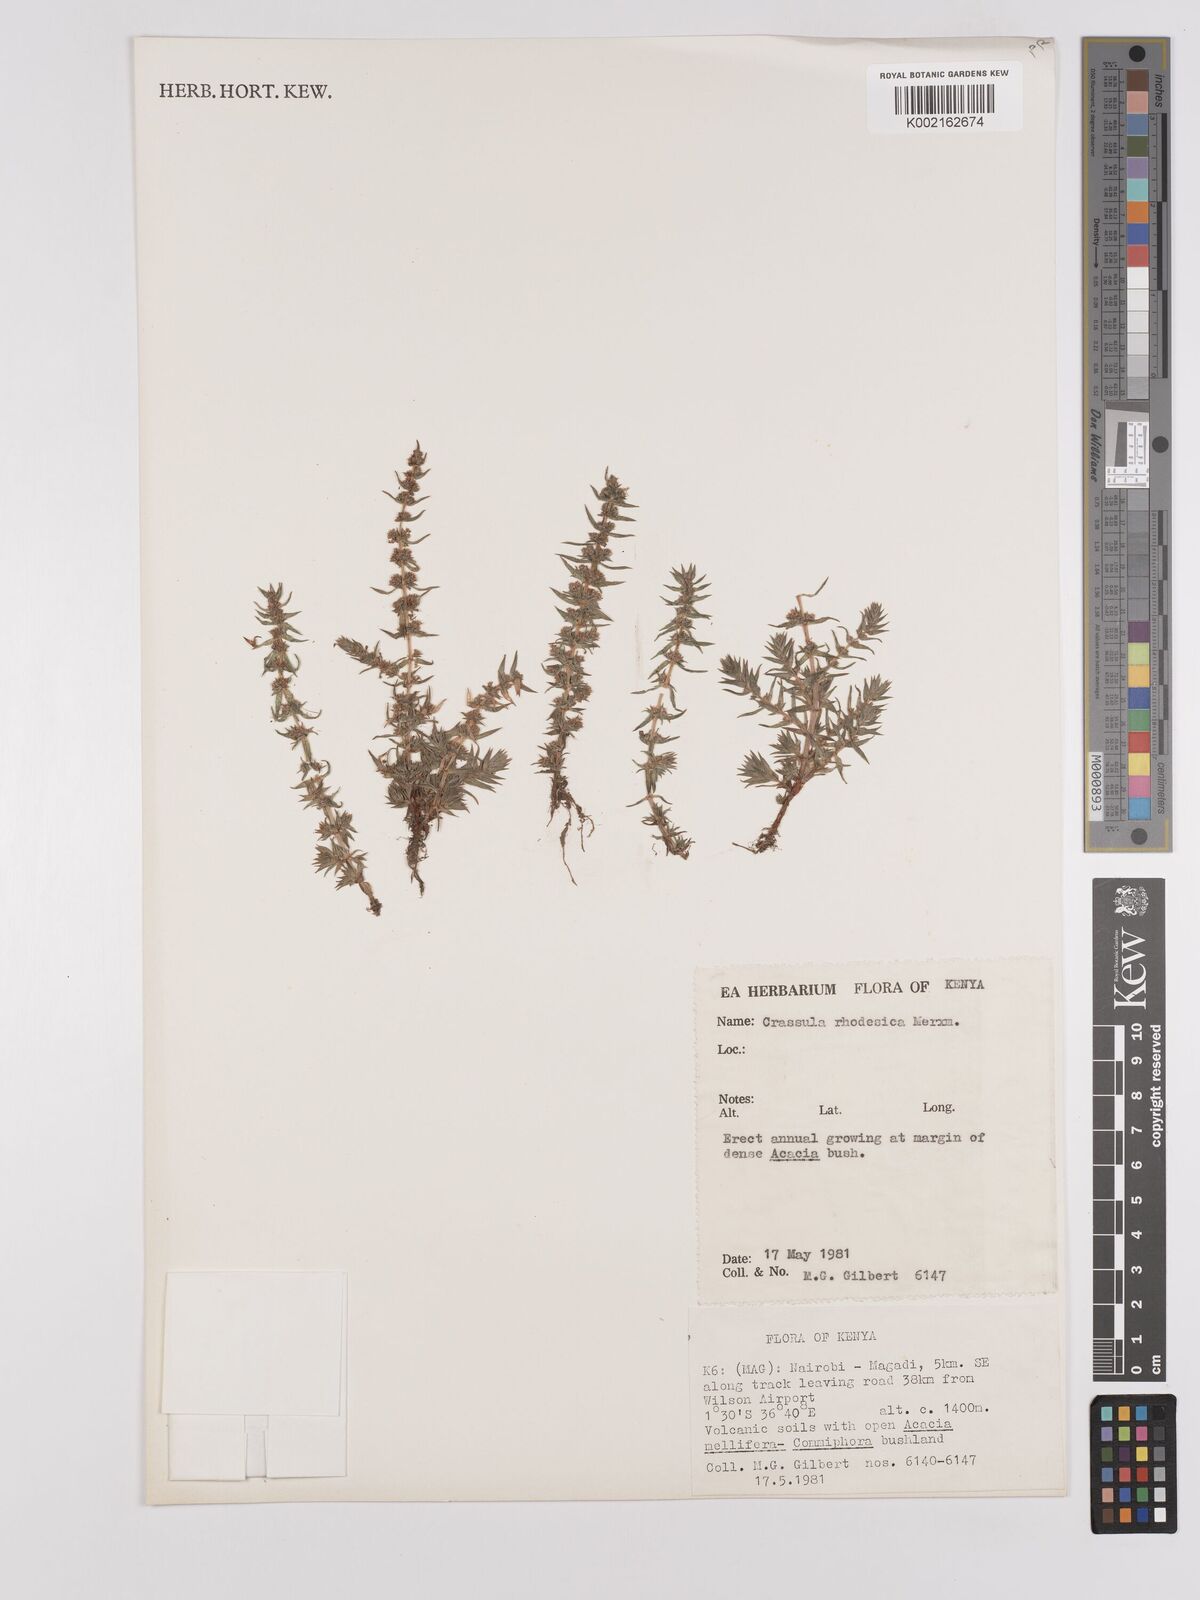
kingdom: Plantae
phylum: Tracheophyta
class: Magnoliopsida
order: Saxifragales
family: Crassulaceae
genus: Crassula
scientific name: Crassula rhodesica
